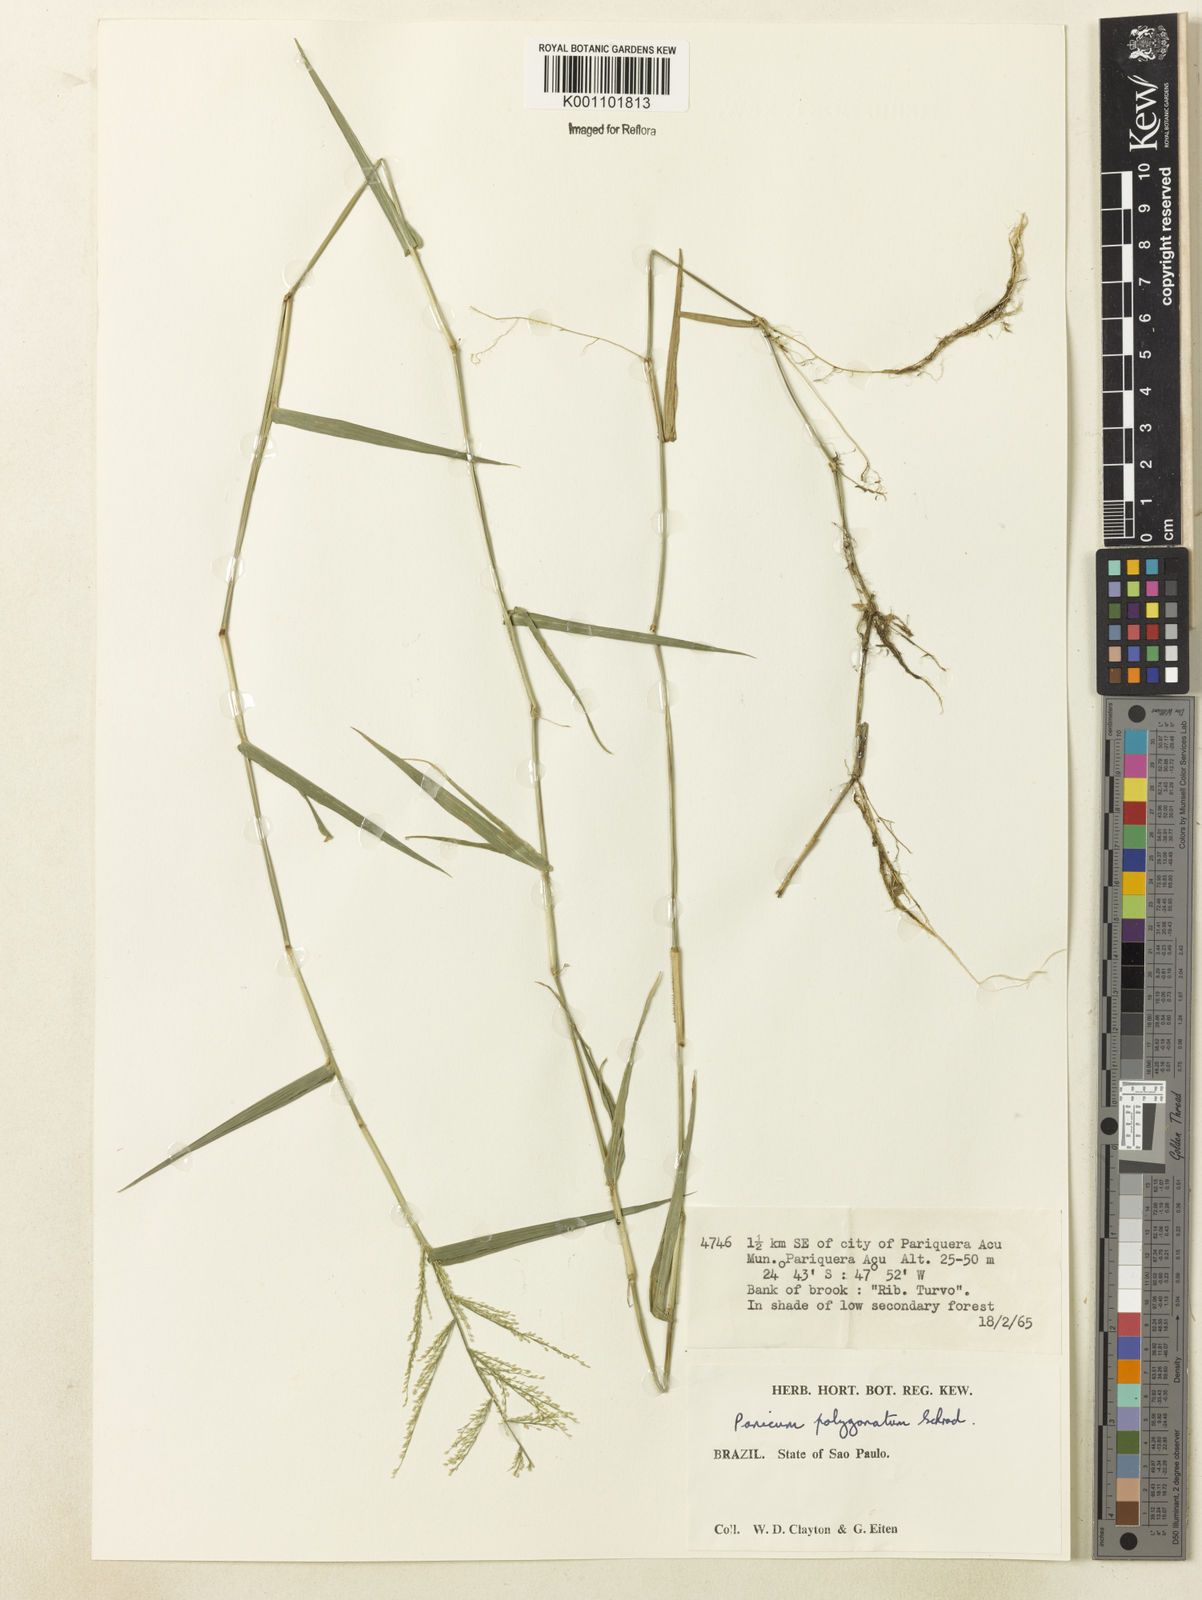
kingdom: Plantae
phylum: Tracheophyta
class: Liliopsida
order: Poales
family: Poaceae
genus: Rugoloa
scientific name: Rugoloa polygonata
